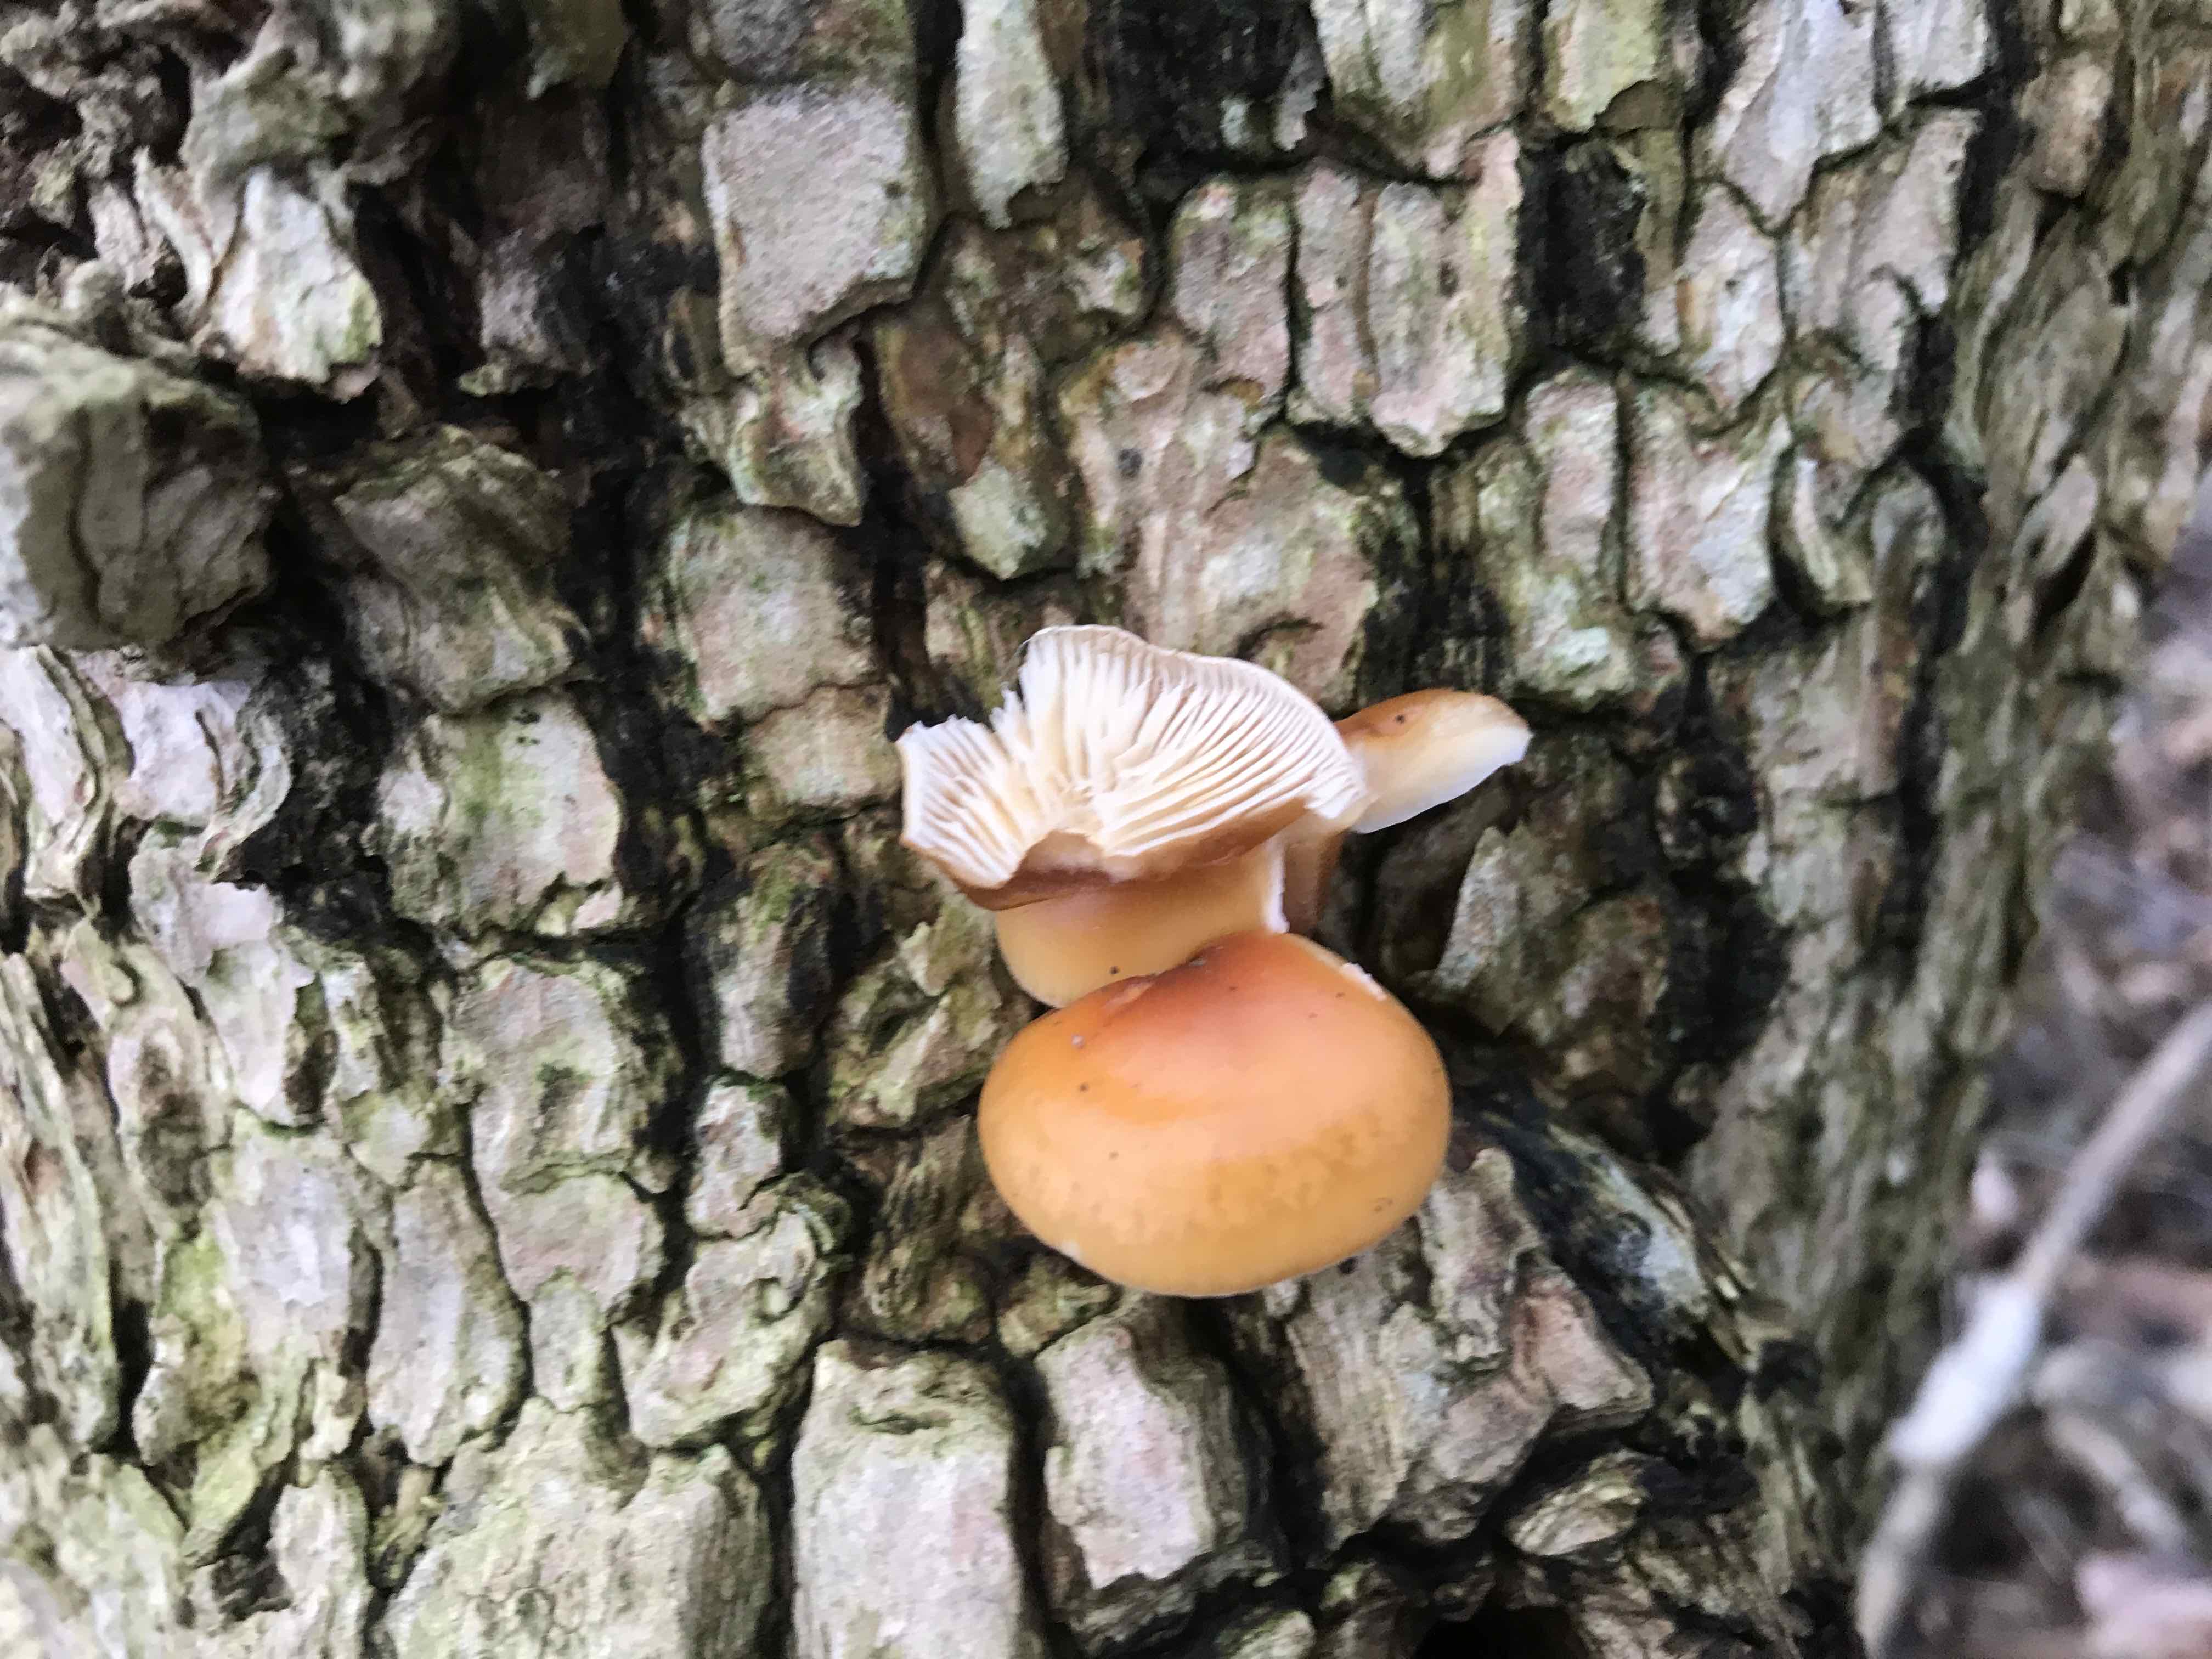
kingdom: Fungi
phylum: Basidiomycota
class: Agaricomycetes
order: Agaricales
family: Physalacriaceae
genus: Flammulina
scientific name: Flammulina velutipes
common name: gul fløjlsfod
